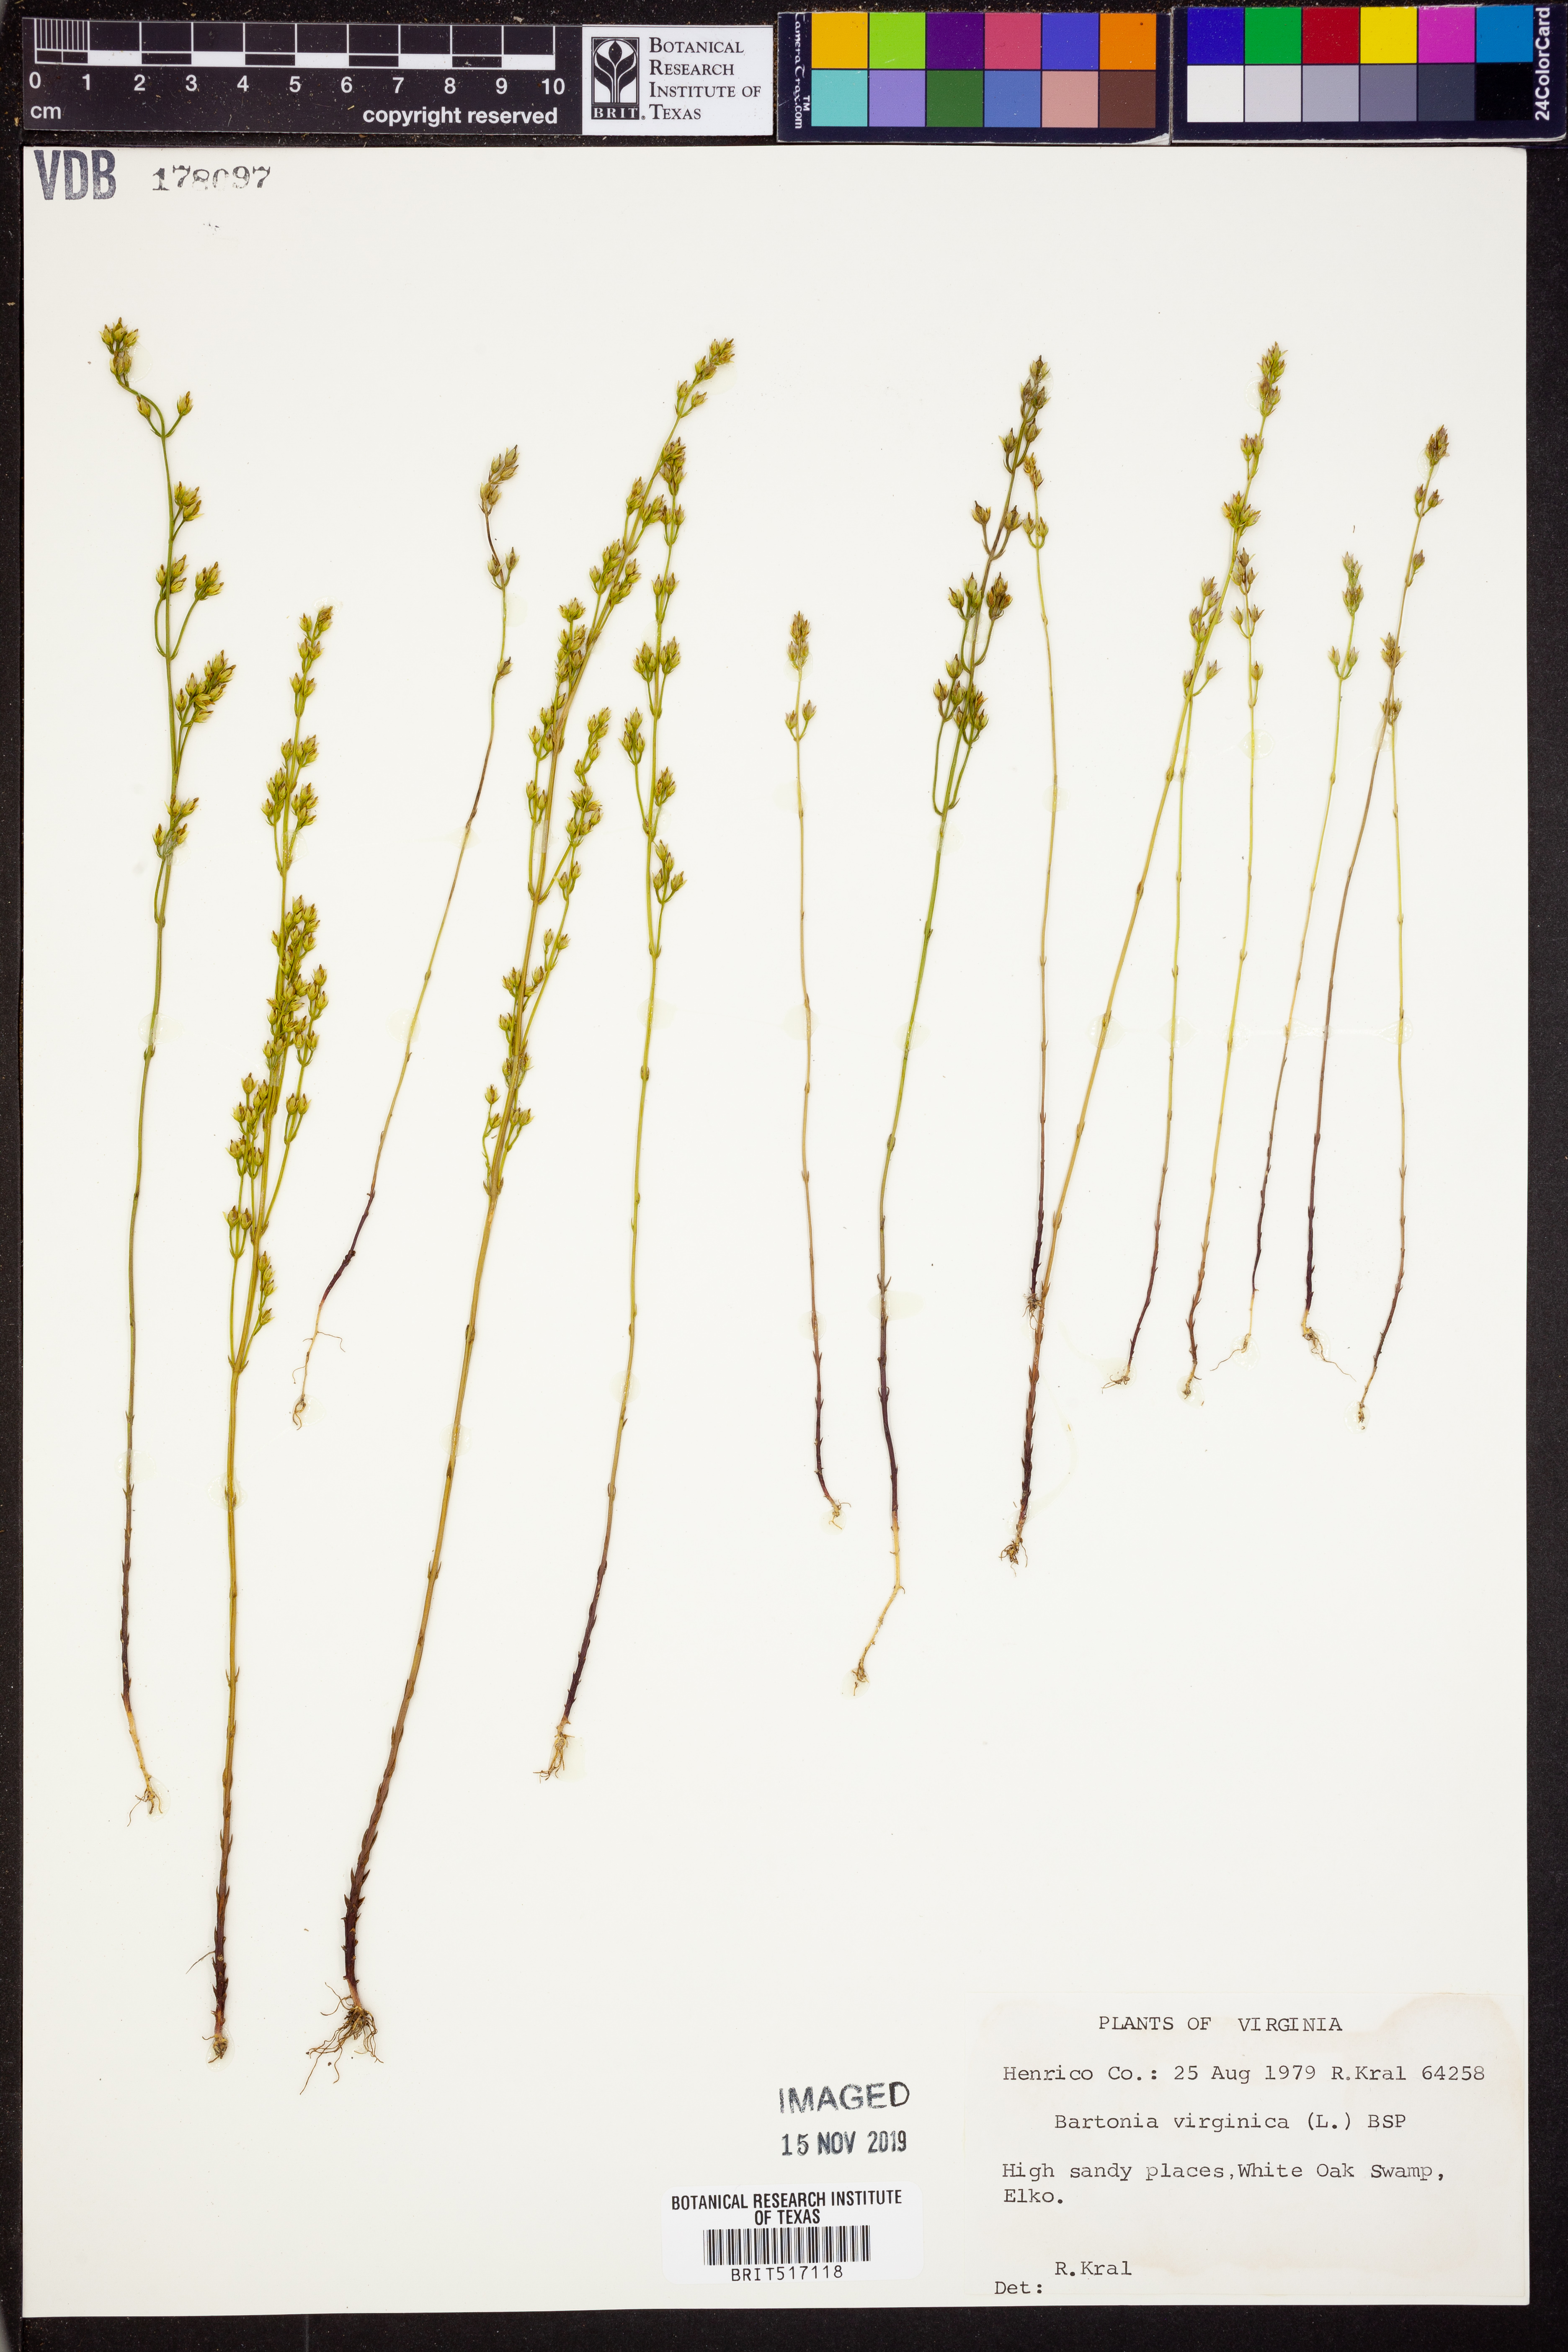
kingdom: Plantae
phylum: Tracheophyta
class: Magnoliopsida
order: Gentianales
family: Gentianaceae
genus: Bartonia
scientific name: Bartonia virginica
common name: Yellow bartonia
